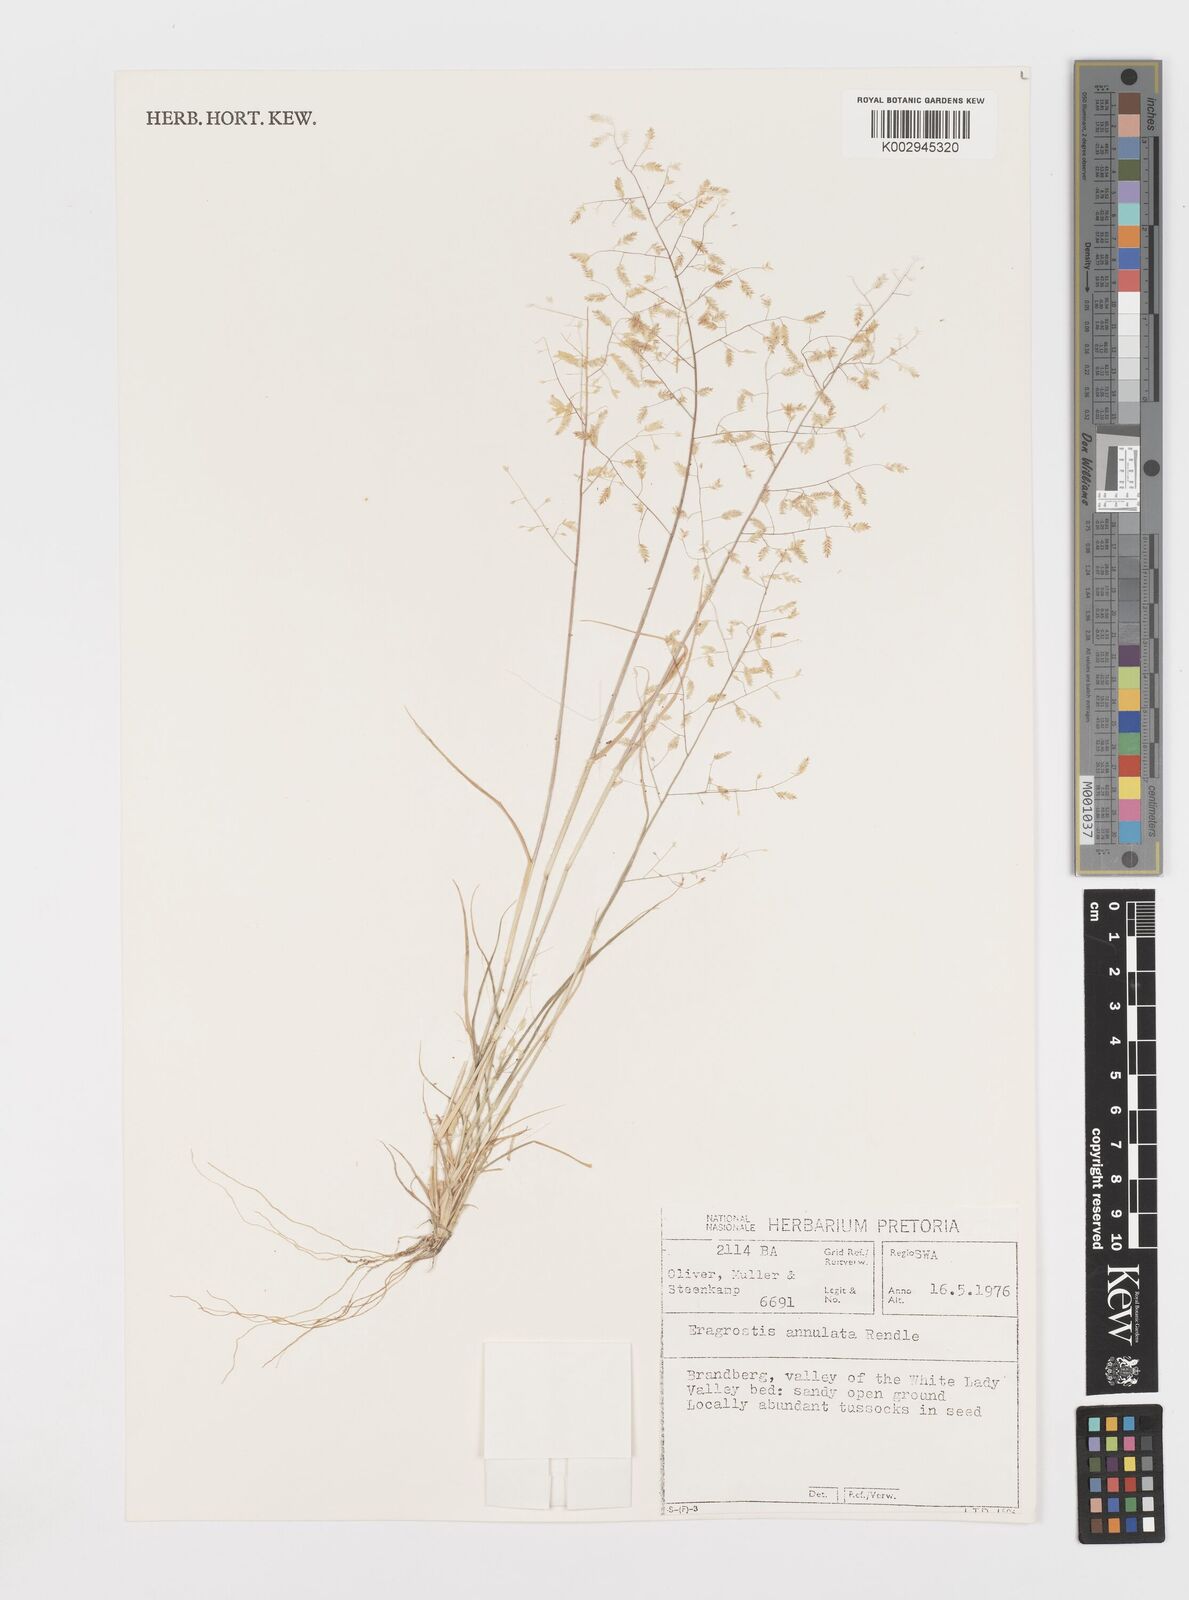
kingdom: Plantae
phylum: Tracheophyta
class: Liliopsida
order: Poales
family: Poaceae
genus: Eragrostis
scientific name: Eragrostis annulata
